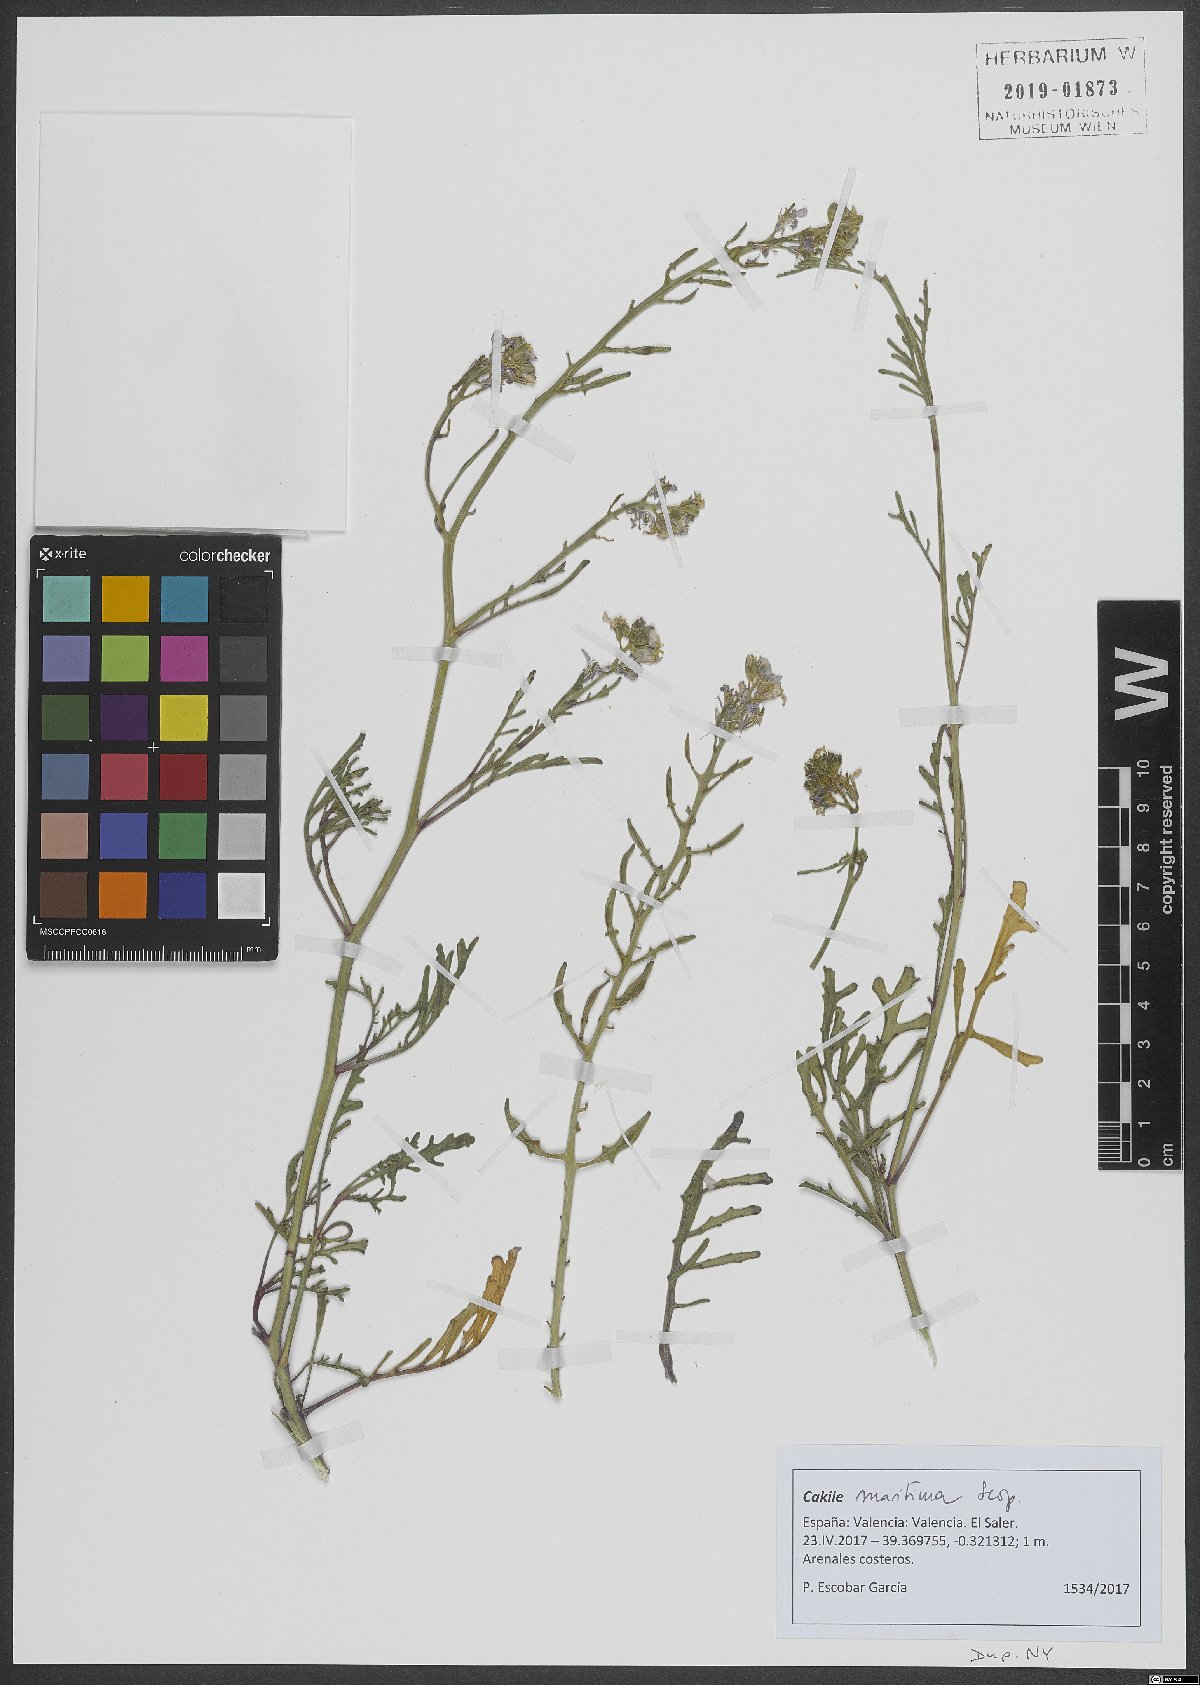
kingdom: Plantae
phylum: Tracheophyta
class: Magnoliopsida
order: Brassicales
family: Brassicaceae
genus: Cakile
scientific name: Cakile maritima
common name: Sea rocket
